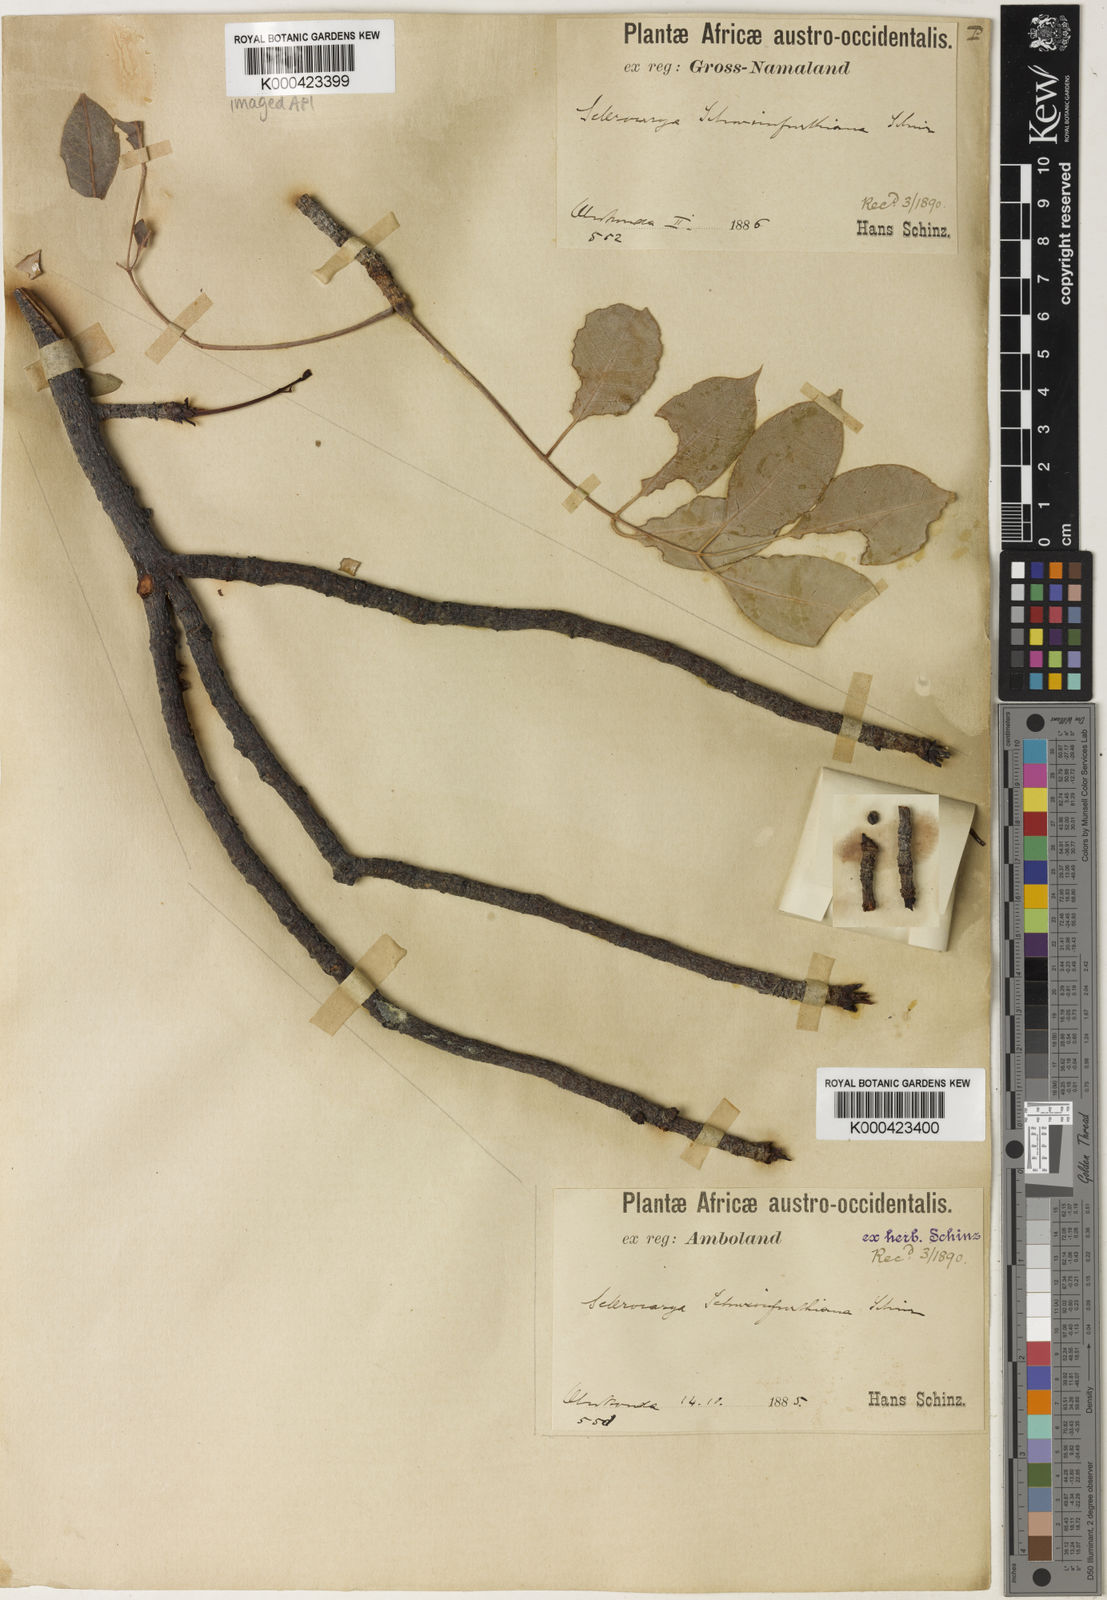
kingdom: Plantae
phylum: Tracheophyta
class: Magnoliopsida
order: Sapindales
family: Anacardiaceae
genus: Sclerocarya
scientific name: Sclerocarya birrea
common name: Marula
